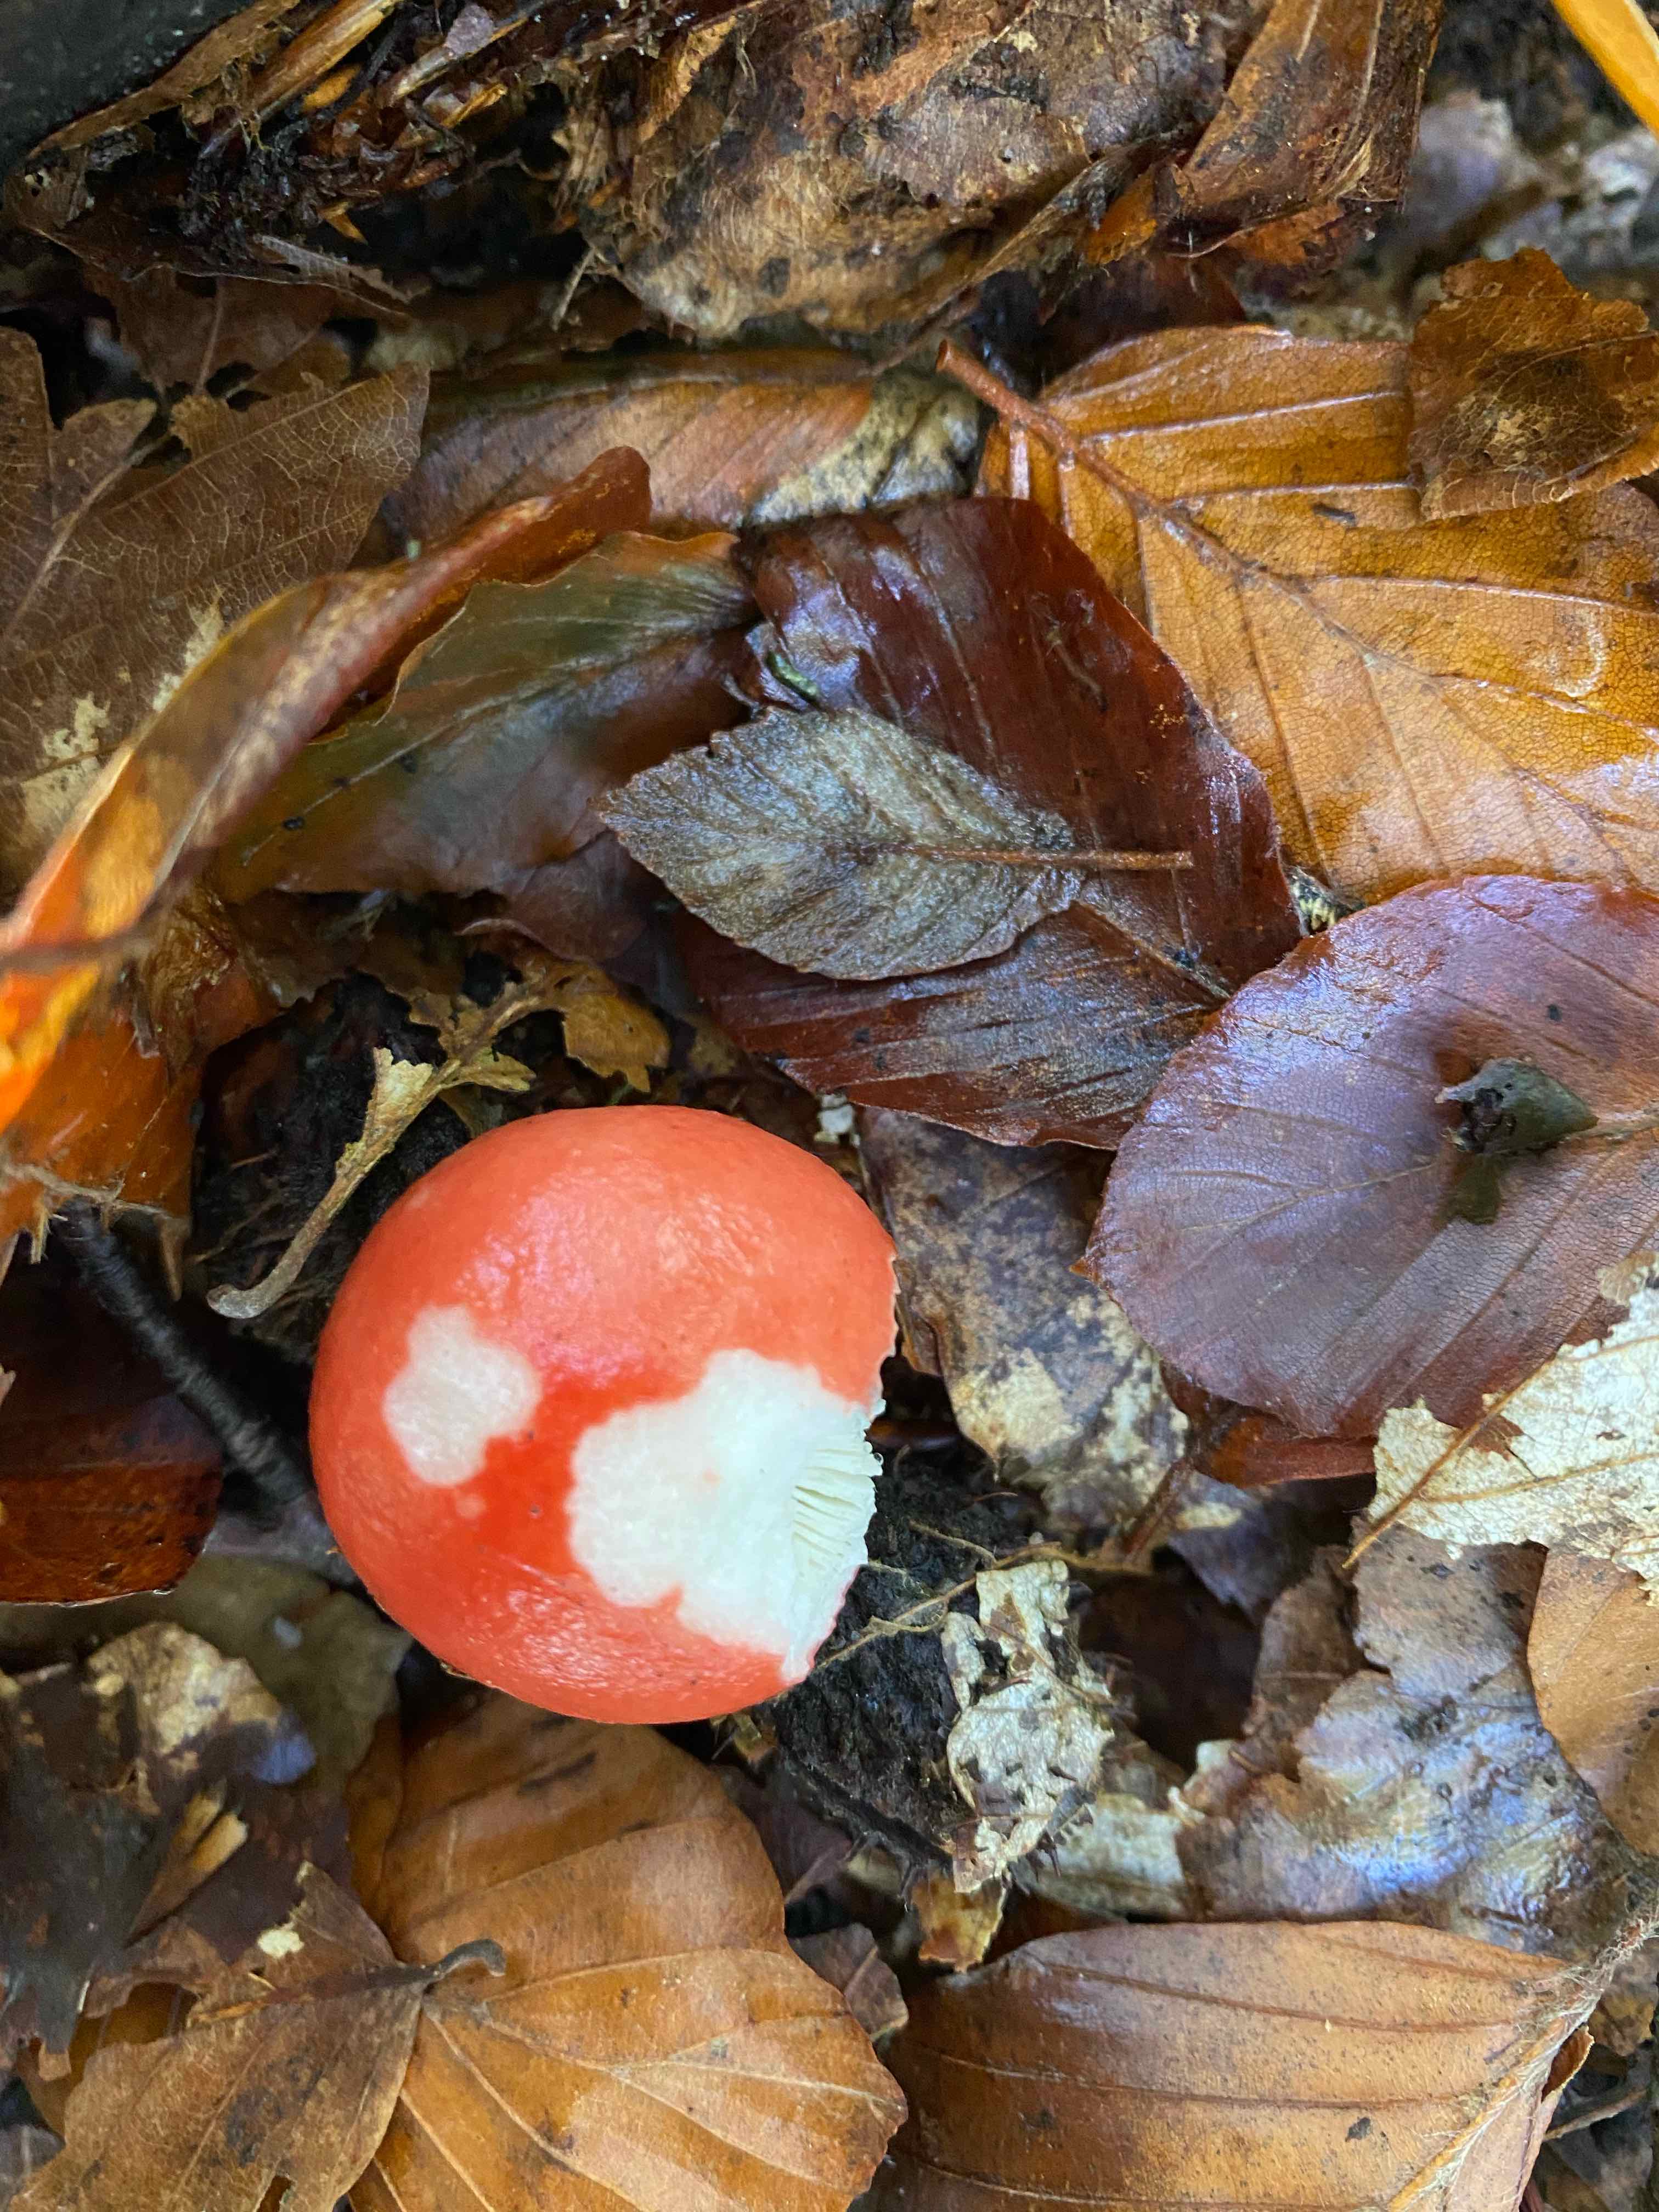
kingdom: Fungi
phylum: Basidiomycota
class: Agaricomycetes
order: Russulales
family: Russulaceae
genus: Russula
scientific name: Russula silvestris
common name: mellemstor gift-skørhat
